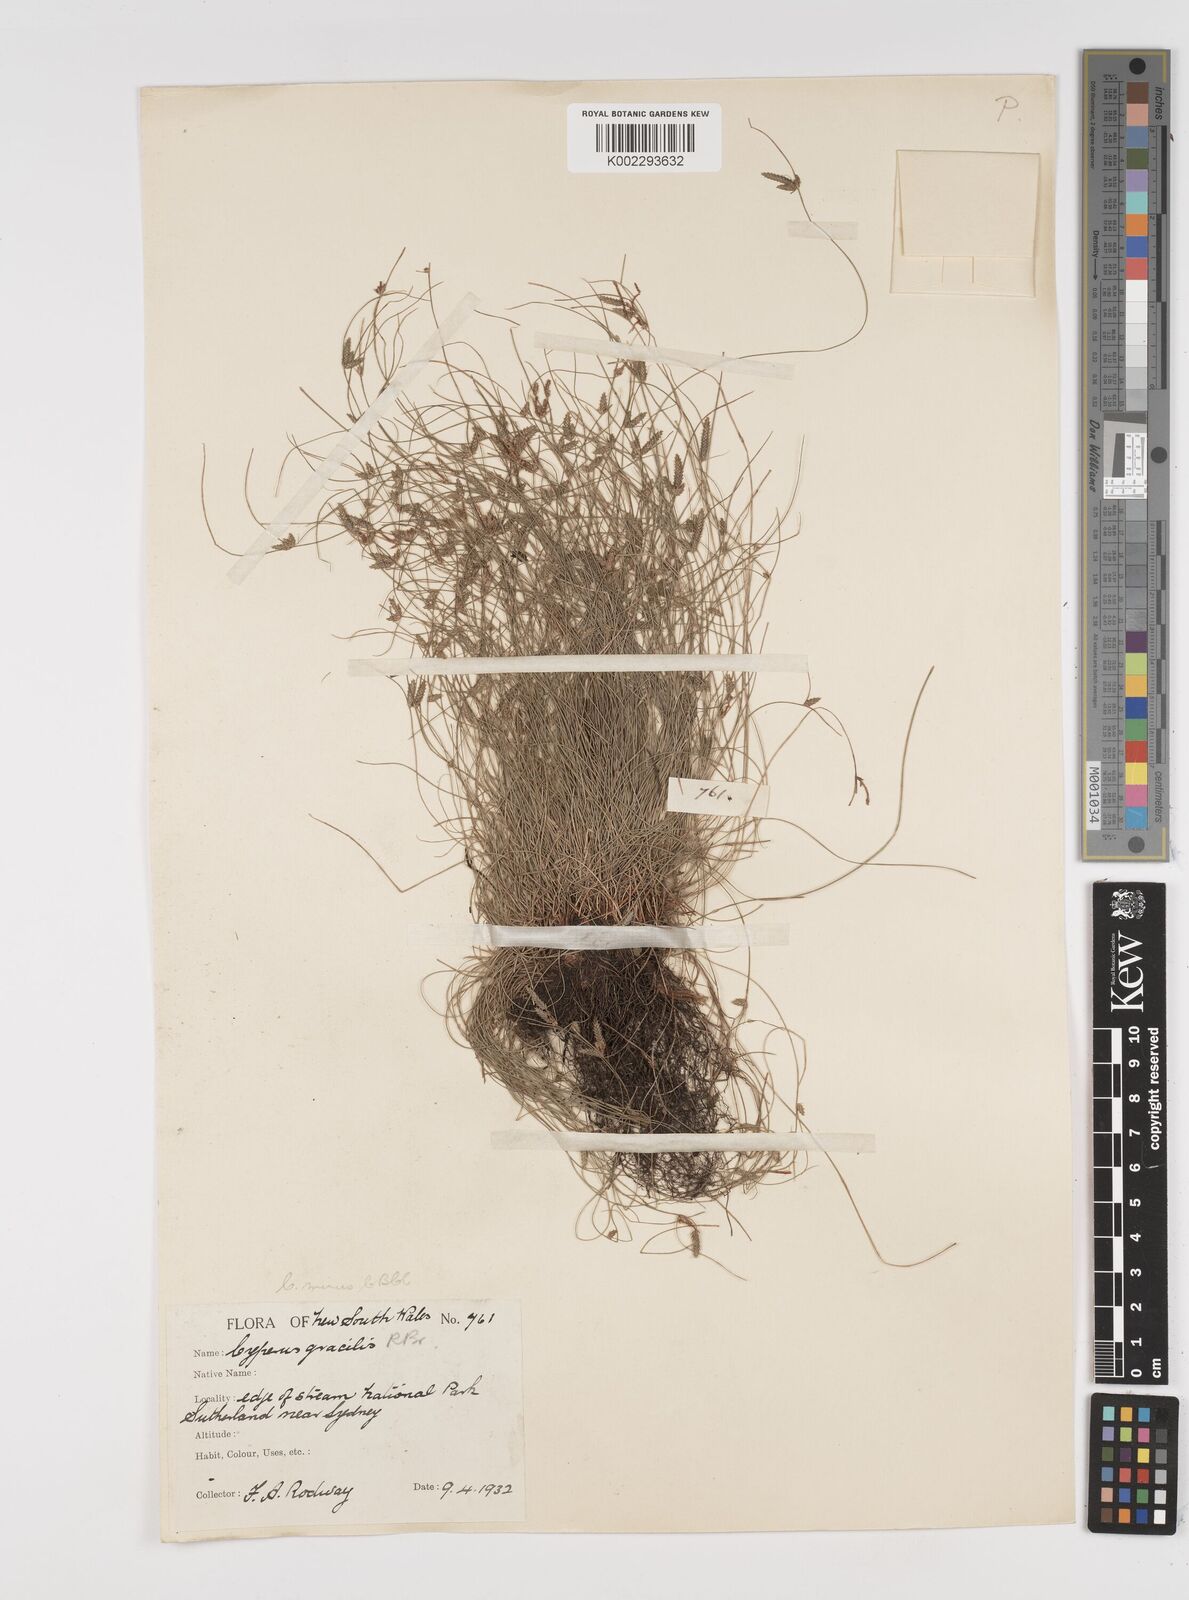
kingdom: Plantae
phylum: Tracheophyta
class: Liliopsida
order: Poales
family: Cyperaceae
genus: Cyperus
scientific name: Cyperus mirus
